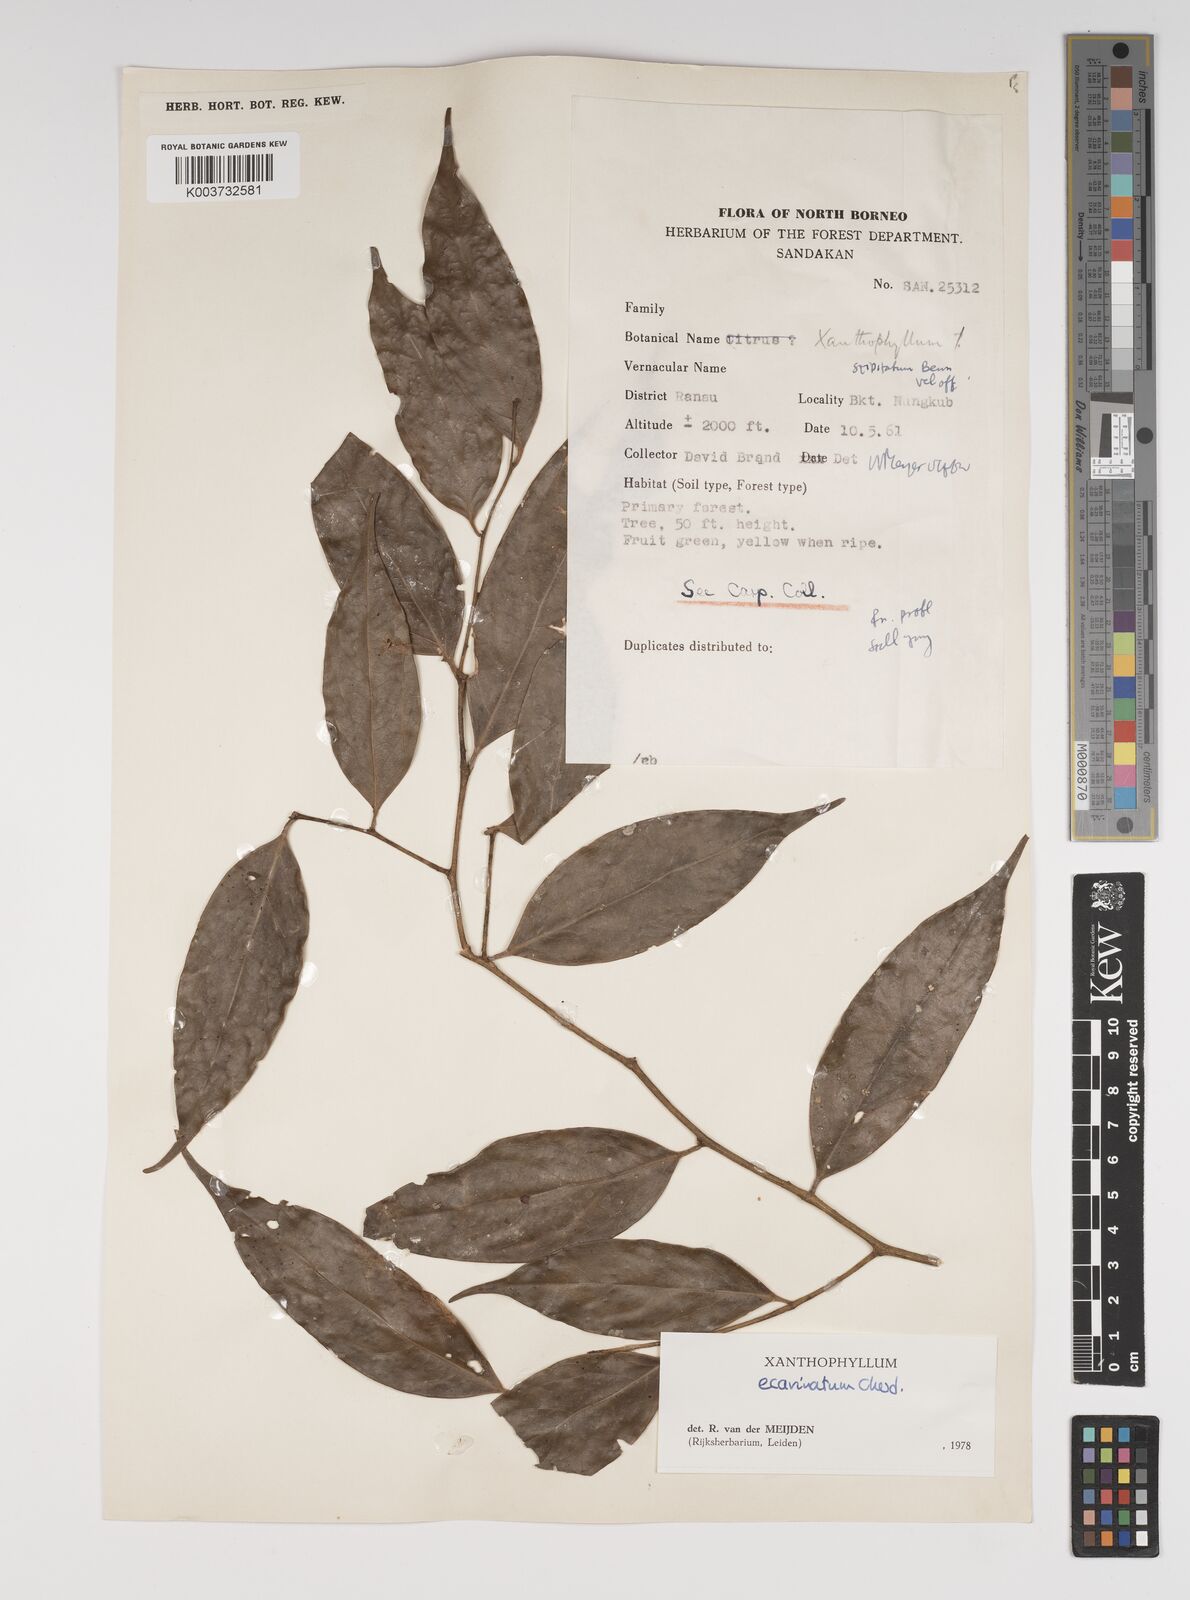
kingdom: Plantae
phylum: Tracheophyta
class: Magnoliopsida
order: Fabales
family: Polygalaceae
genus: Xanthophyllum
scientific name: Xanthophyllum ecarinatum
